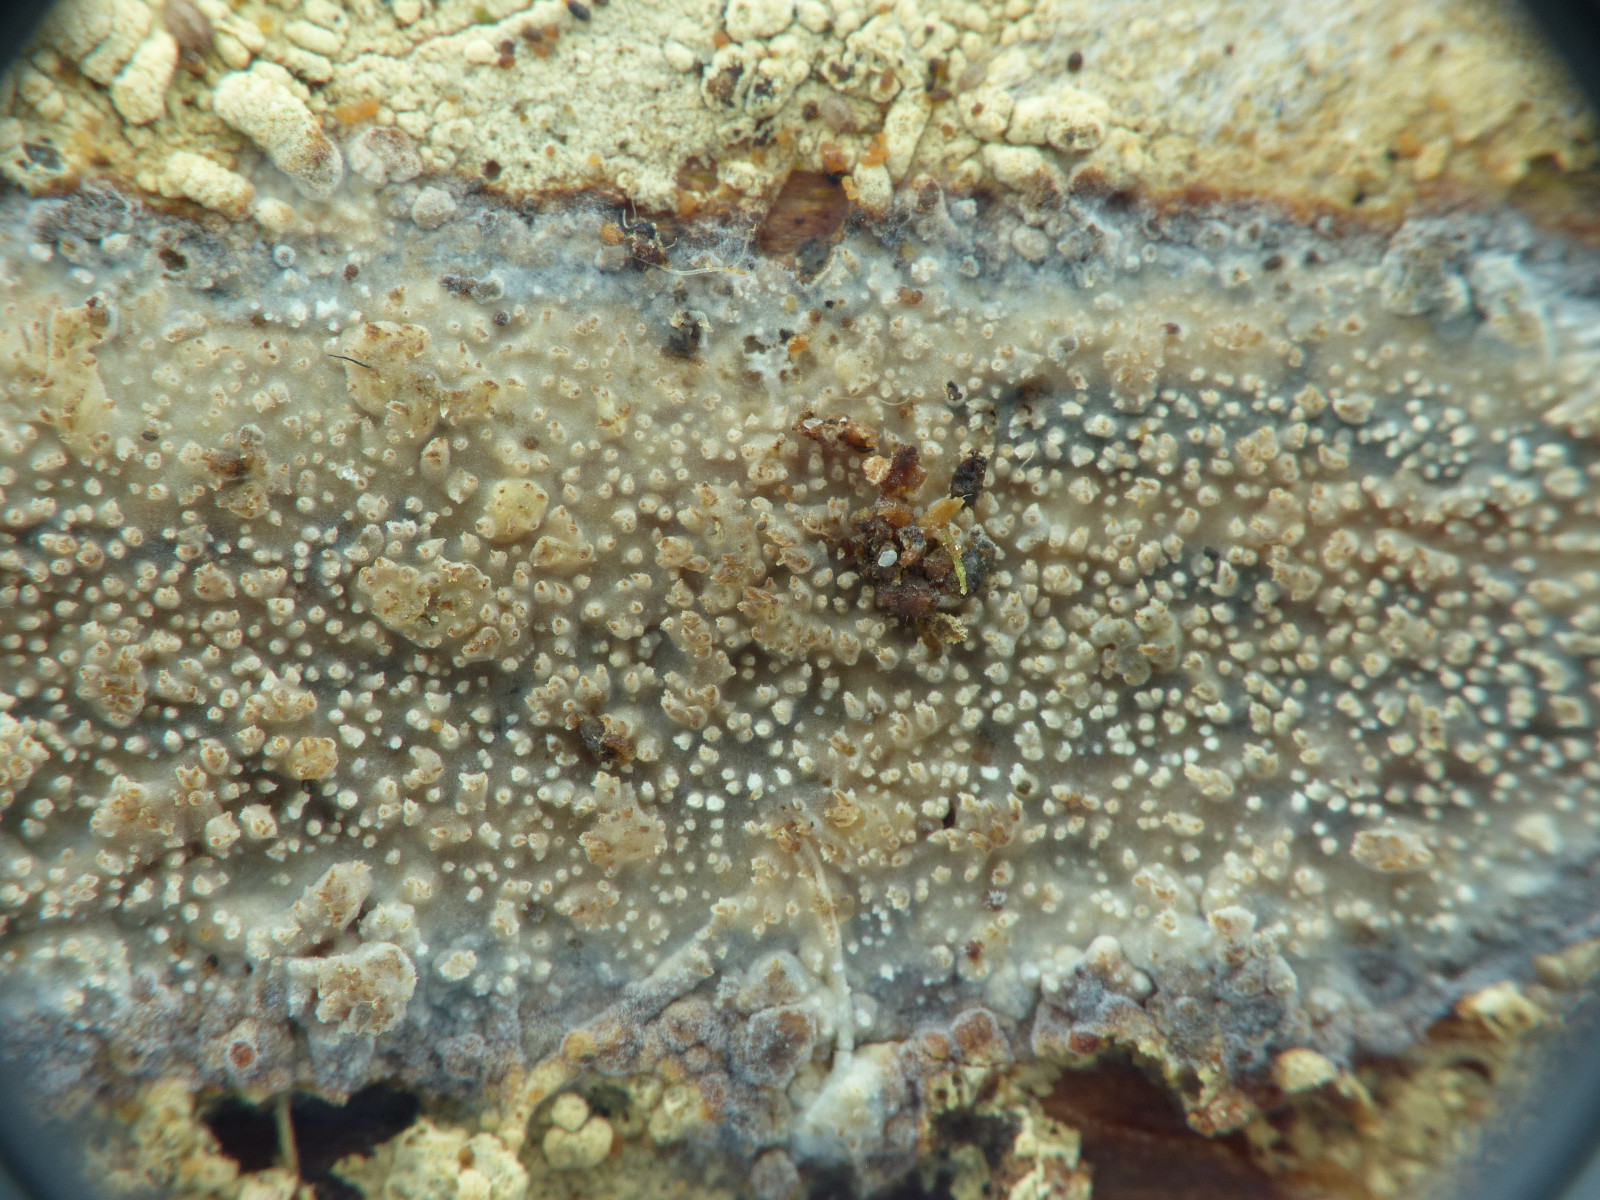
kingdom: Fungi
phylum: Basidiomycota
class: Agaricomycetes
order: Hymenochaetales
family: Rickenellaceae
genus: Resinicium
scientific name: Resinicium bicolor
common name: almindelig vokstand
